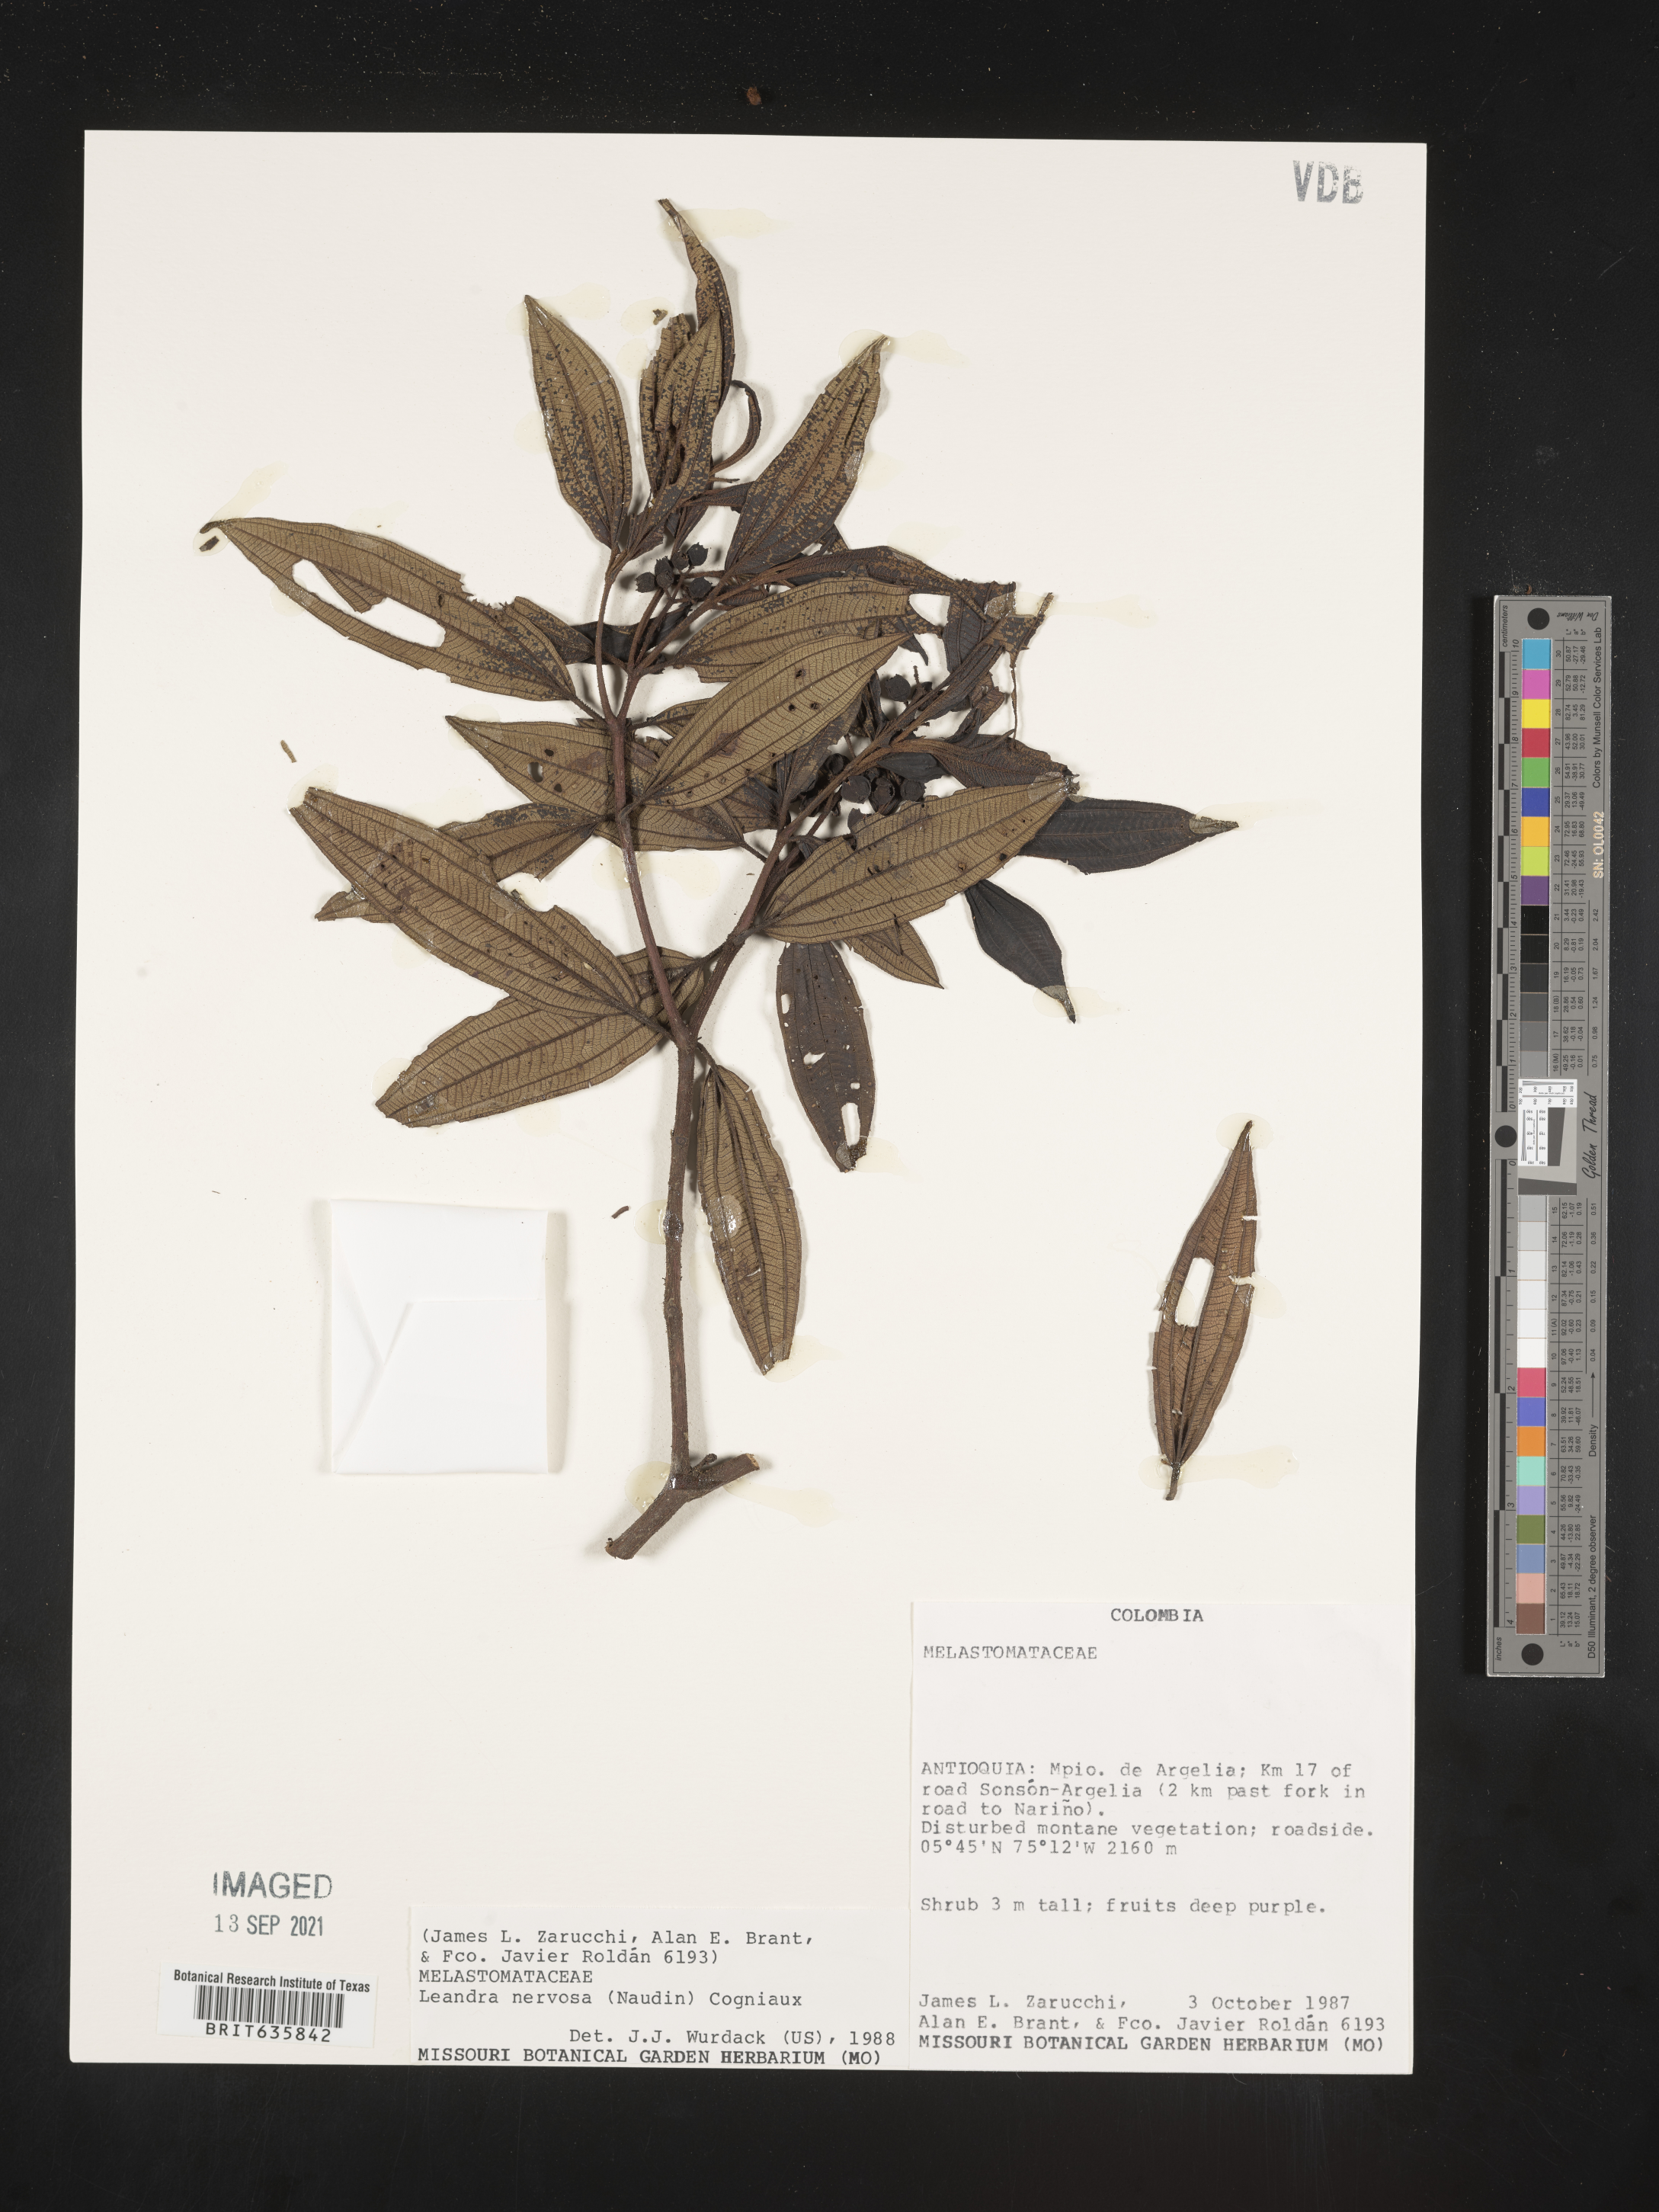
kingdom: Plantae
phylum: Tracheophyta
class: Magnoliopsida
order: Myrtales
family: Melastomataceae
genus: Miconia
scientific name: Miconia
